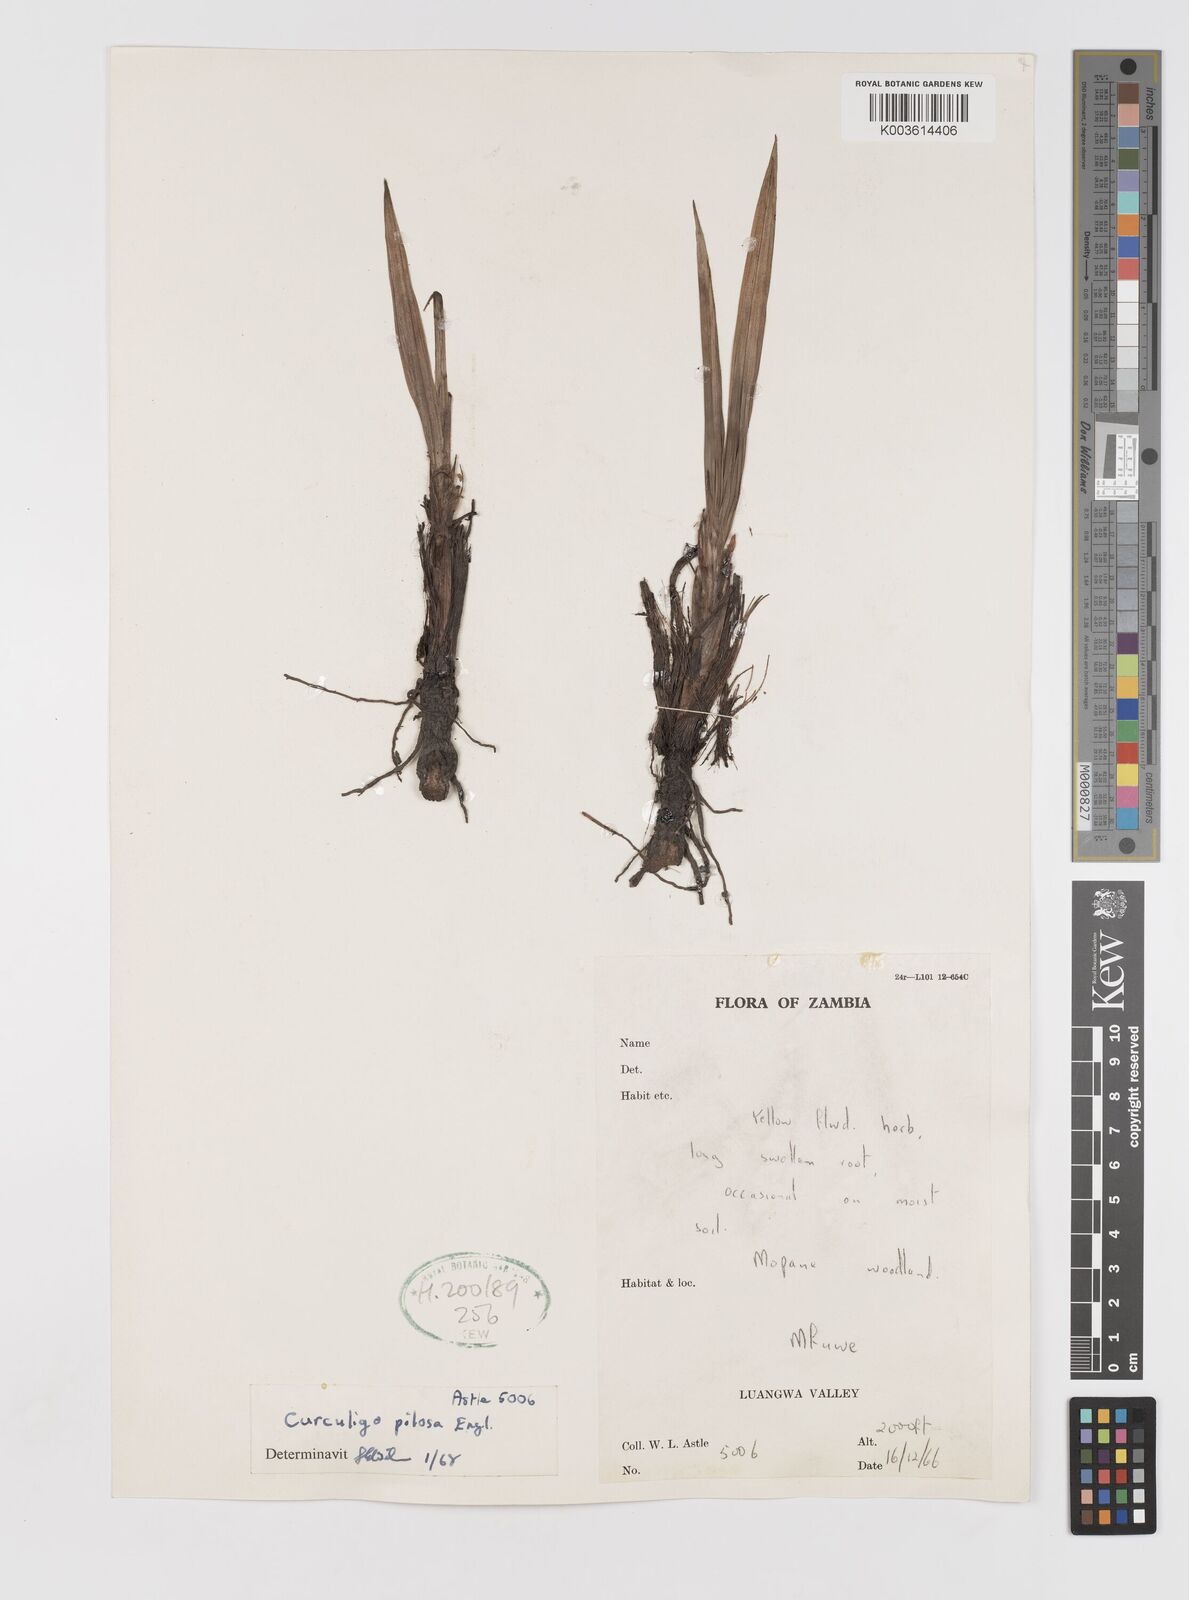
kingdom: Plantae
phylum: Tracheophyta
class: Liliopsida
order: Asparagales
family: Hypoxidaceae
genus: Curculigo
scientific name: Curculigo pilosa
